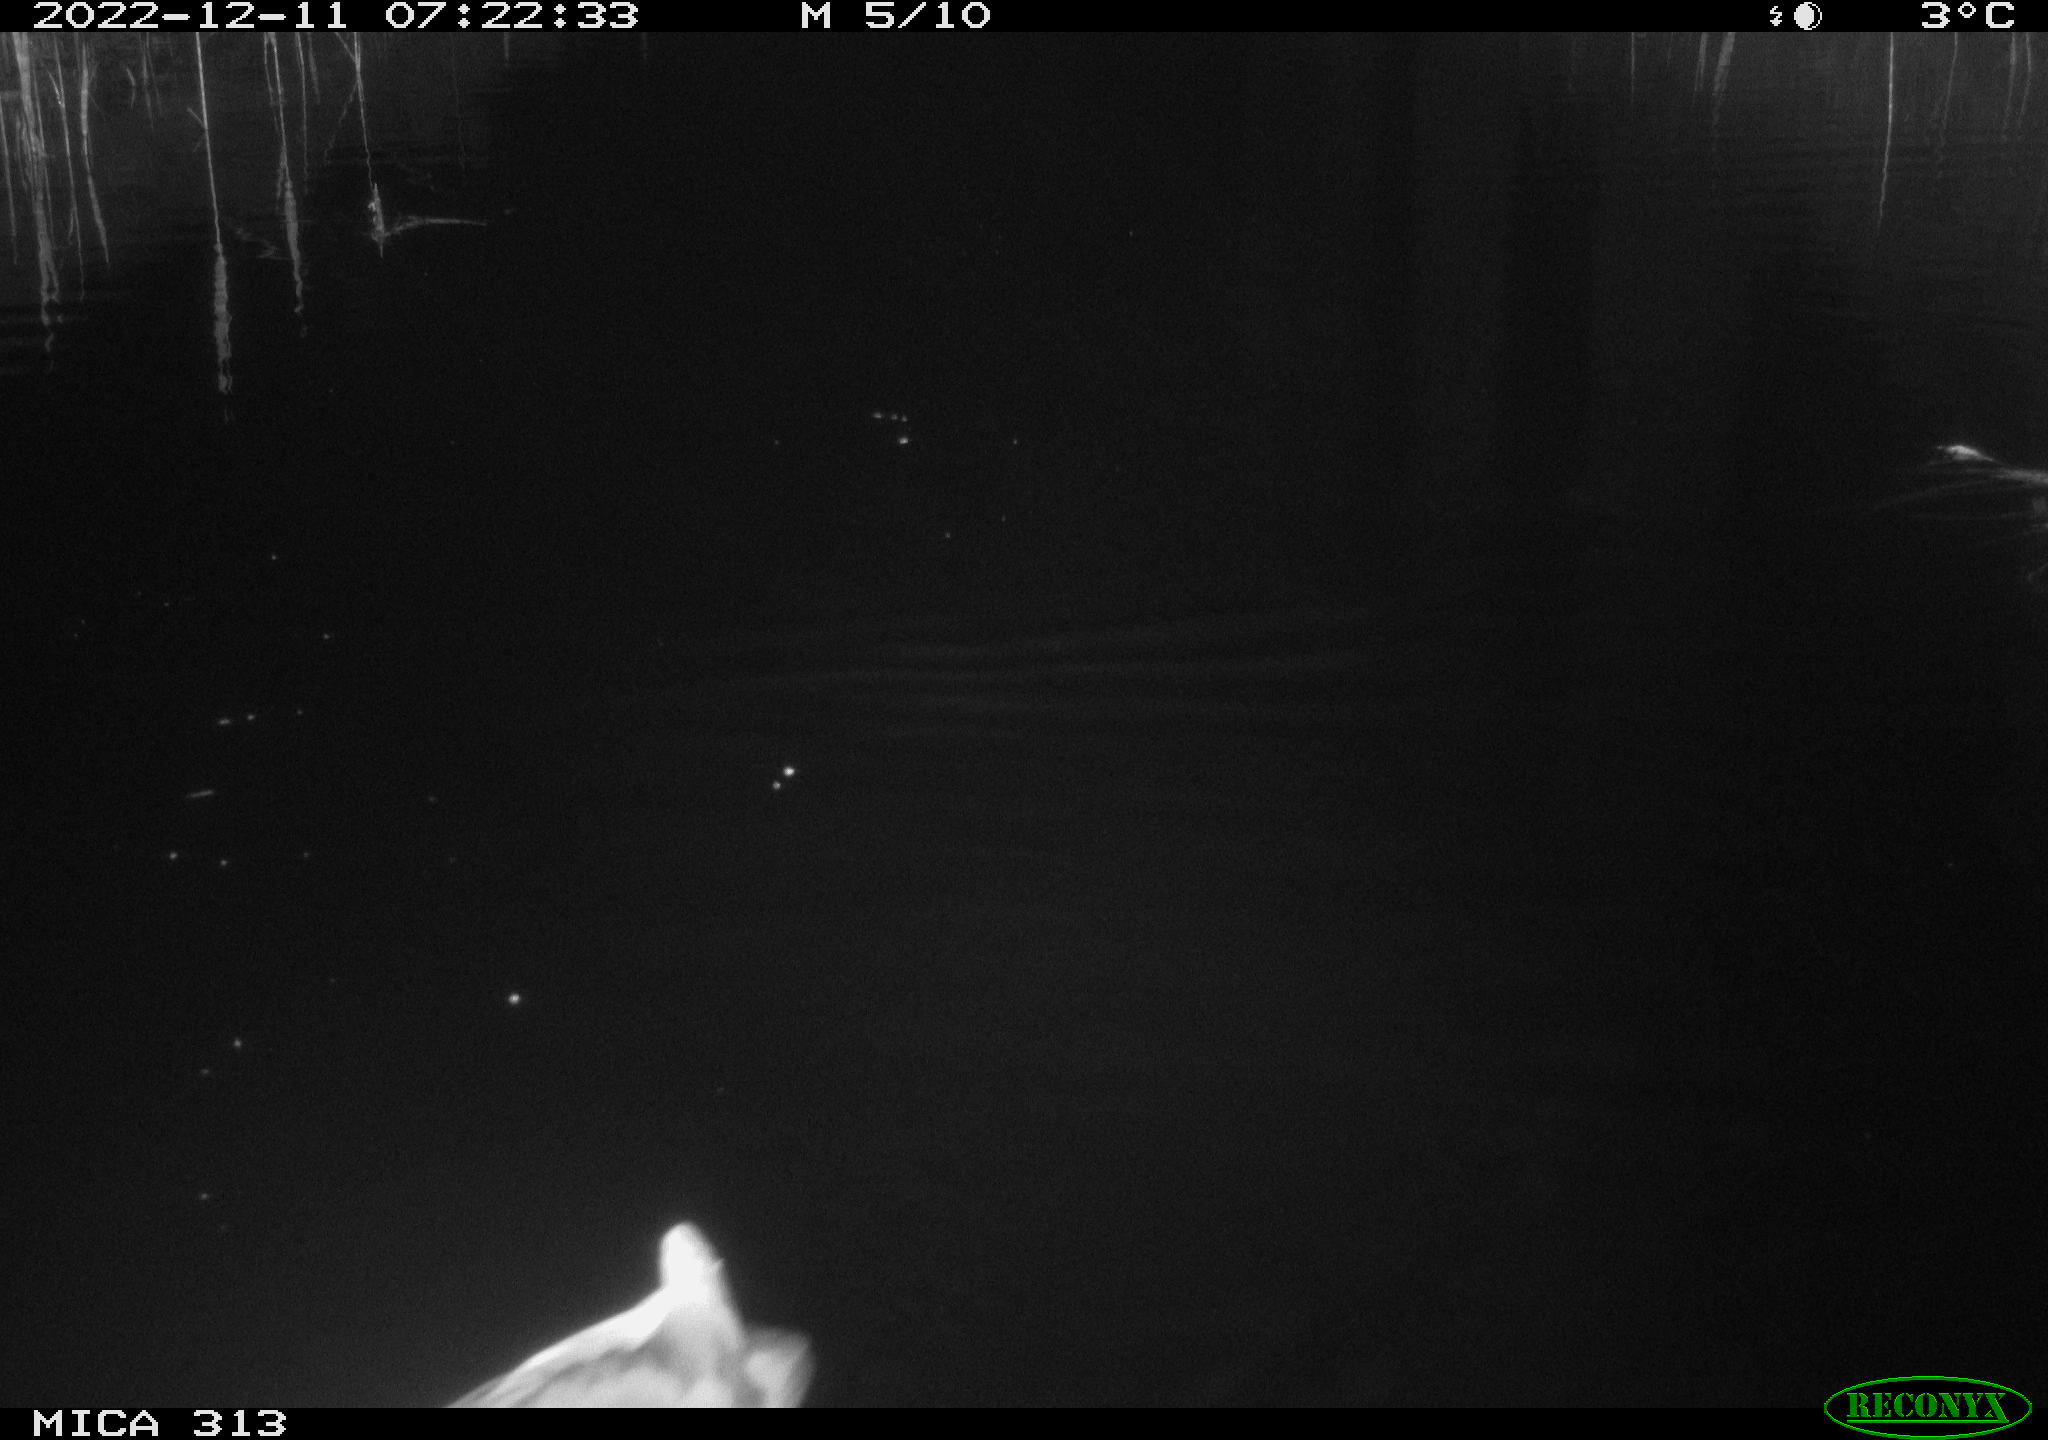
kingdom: Animalia
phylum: Chordata
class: Aves
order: Anseriformes
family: Anatidae
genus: Anas
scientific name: Anas
